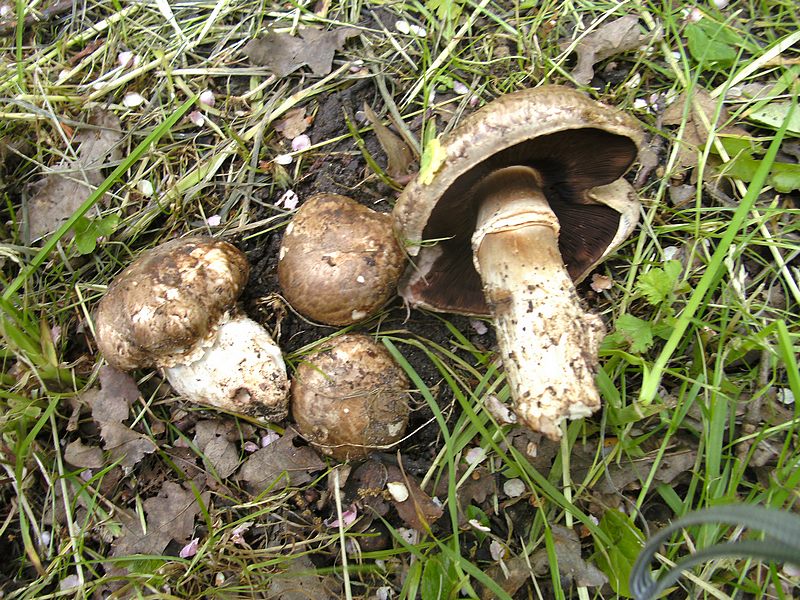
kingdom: Fungi
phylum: Basidiomycota
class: Agaricomycetes
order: Agaricales
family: Agaricaceae
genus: Agaricus
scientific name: Agaricus subperonatus
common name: knippe-champignon
